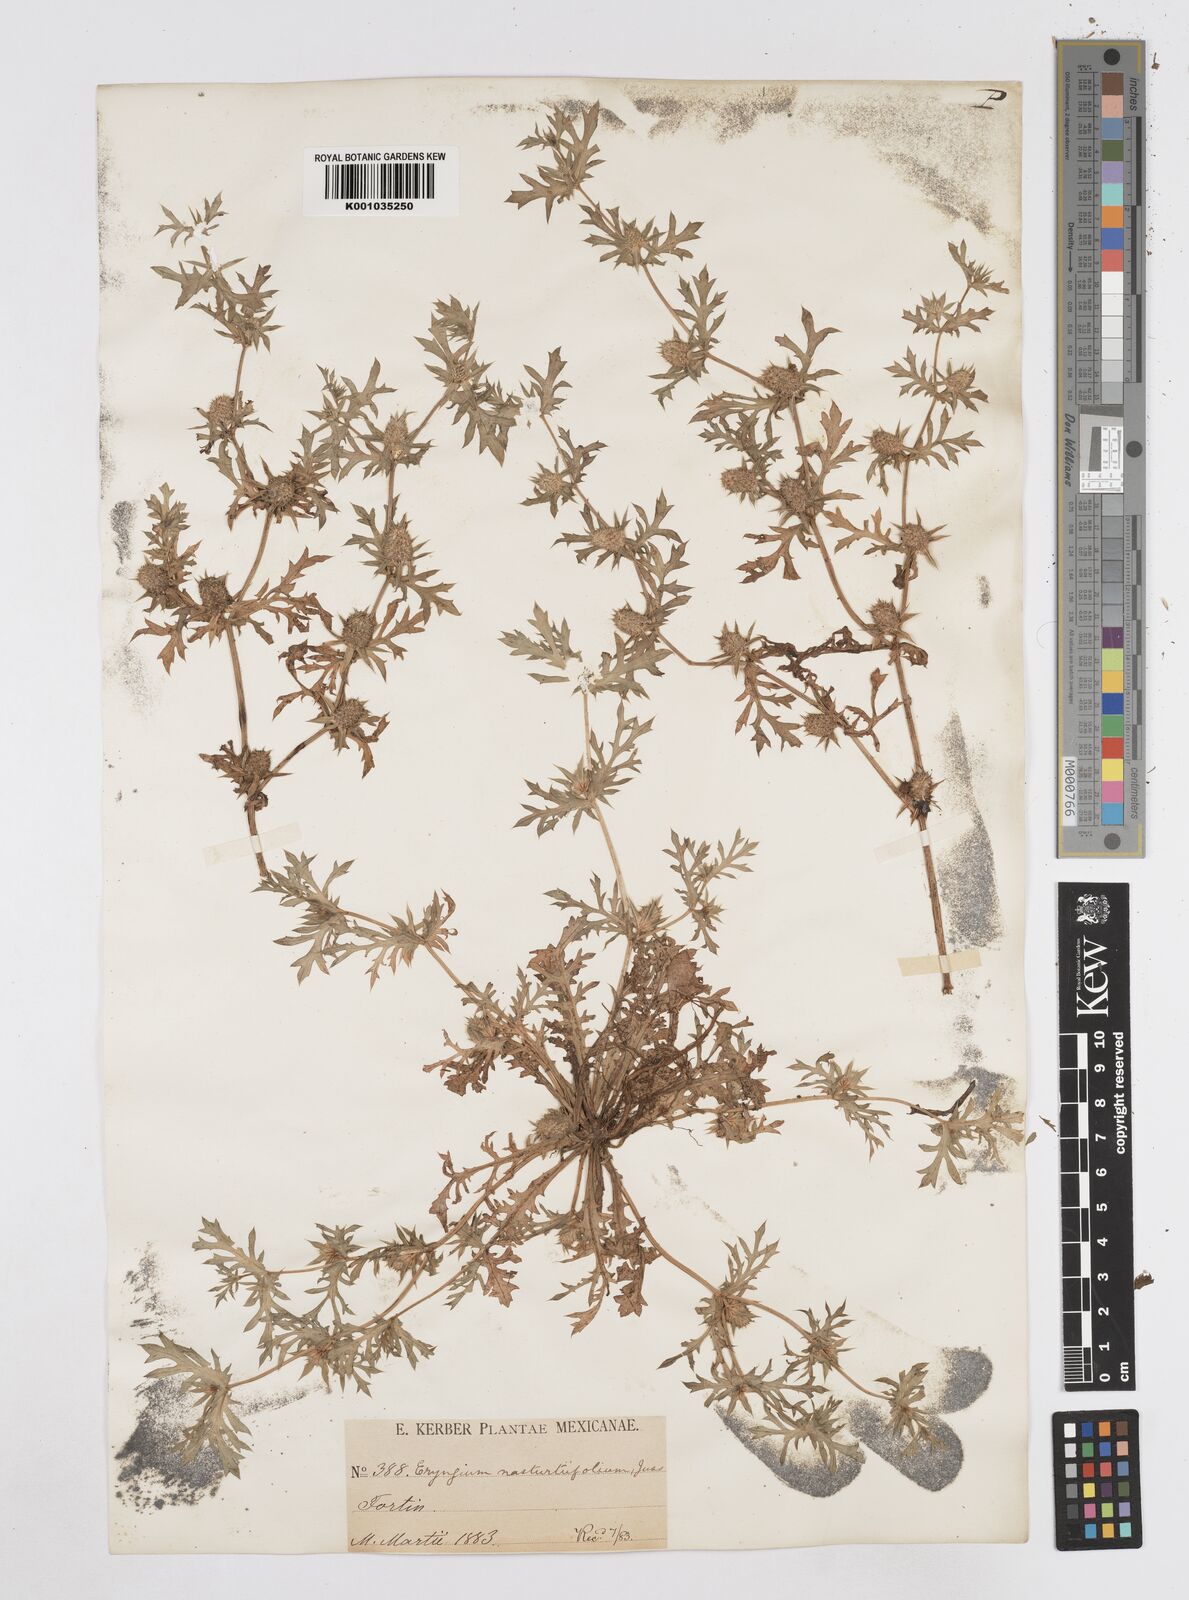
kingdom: Plantae
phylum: Tracheophyta
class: Magnoliopsida
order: Apiales
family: Apiaceae
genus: Eryngium
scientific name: Eryngium nasturtiifolium
